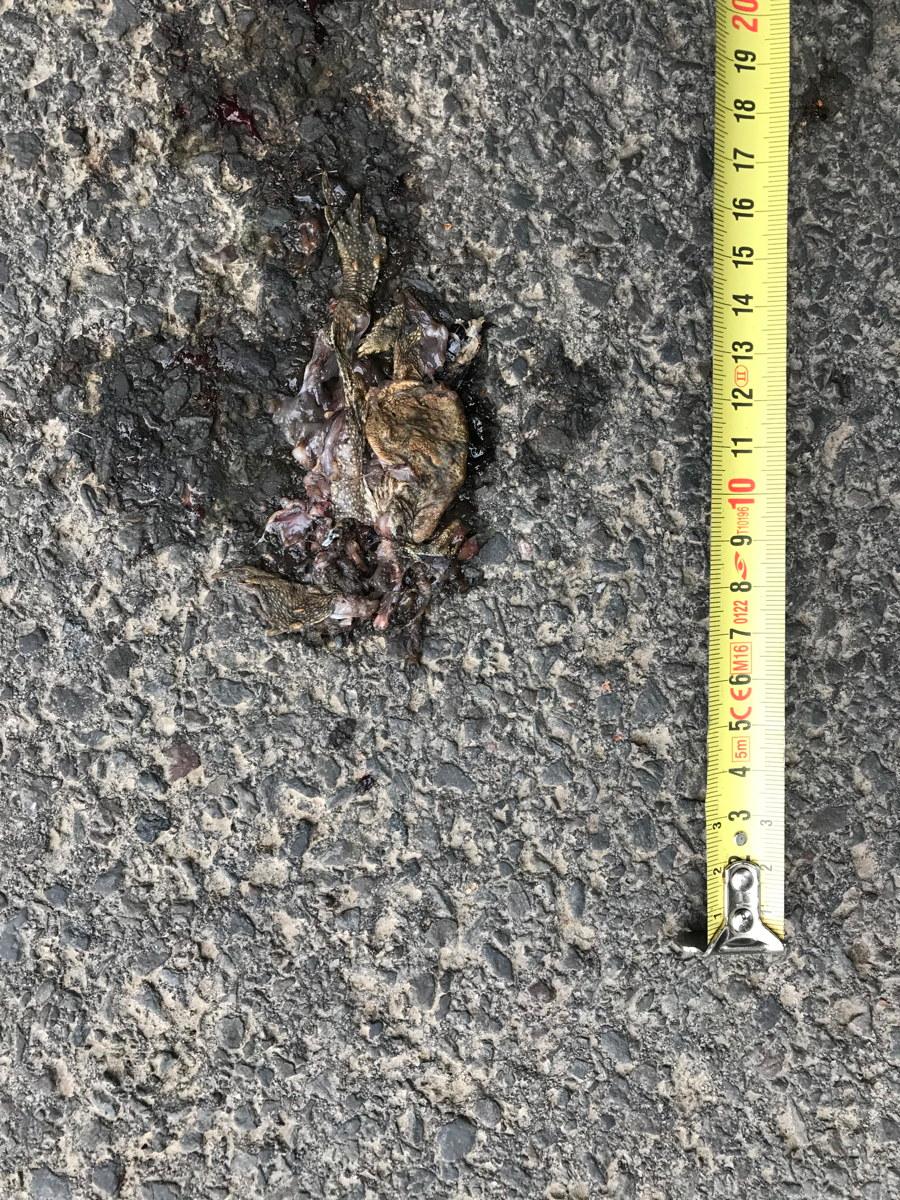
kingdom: Animalia
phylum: Chordata
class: Amphibia
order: Anura
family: Bufonidae
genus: Bufo
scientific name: Bufo bufo
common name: Common toad
